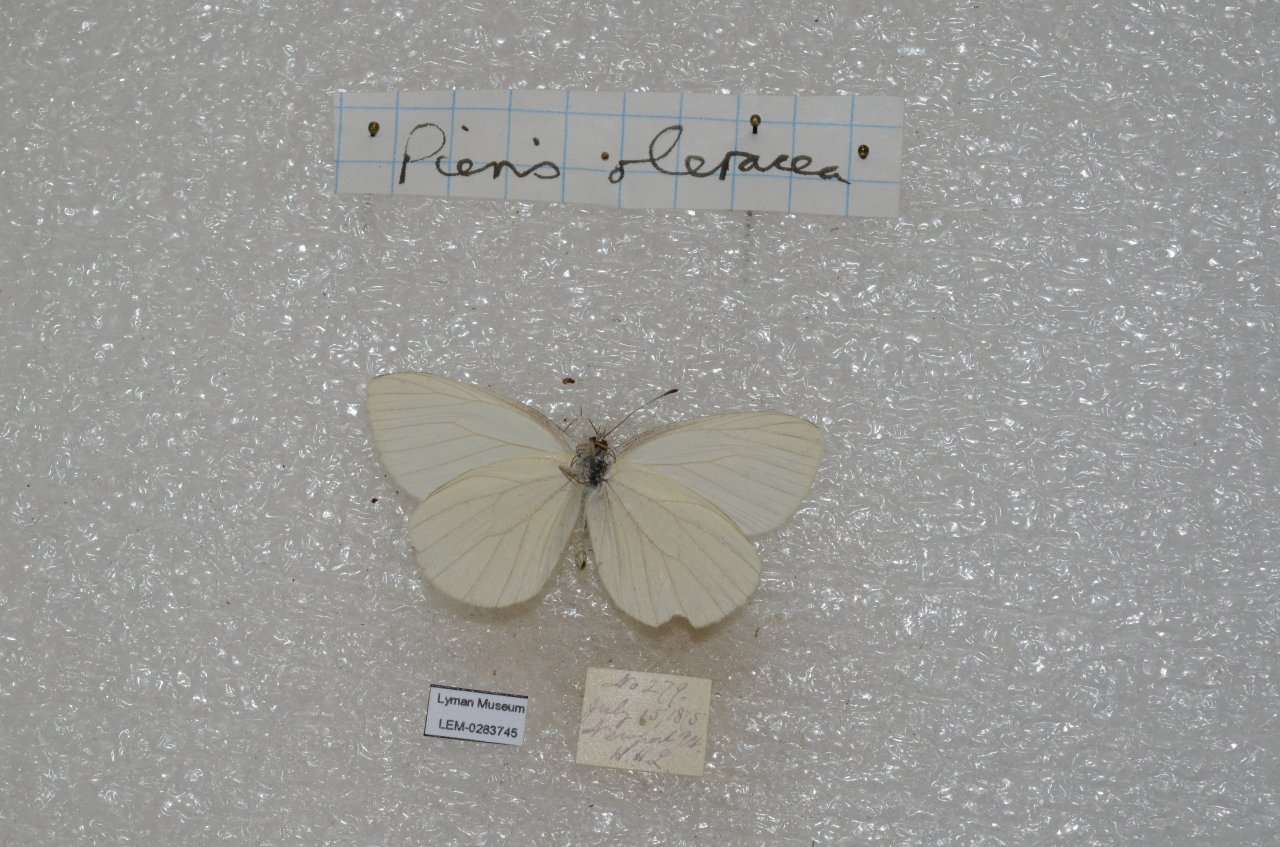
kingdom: Animalia
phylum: Arthropoda
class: Insecta
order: Lepidoptera
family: Pieridae
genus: Pieris
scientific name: Pieris oleracea
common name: Mustard White
